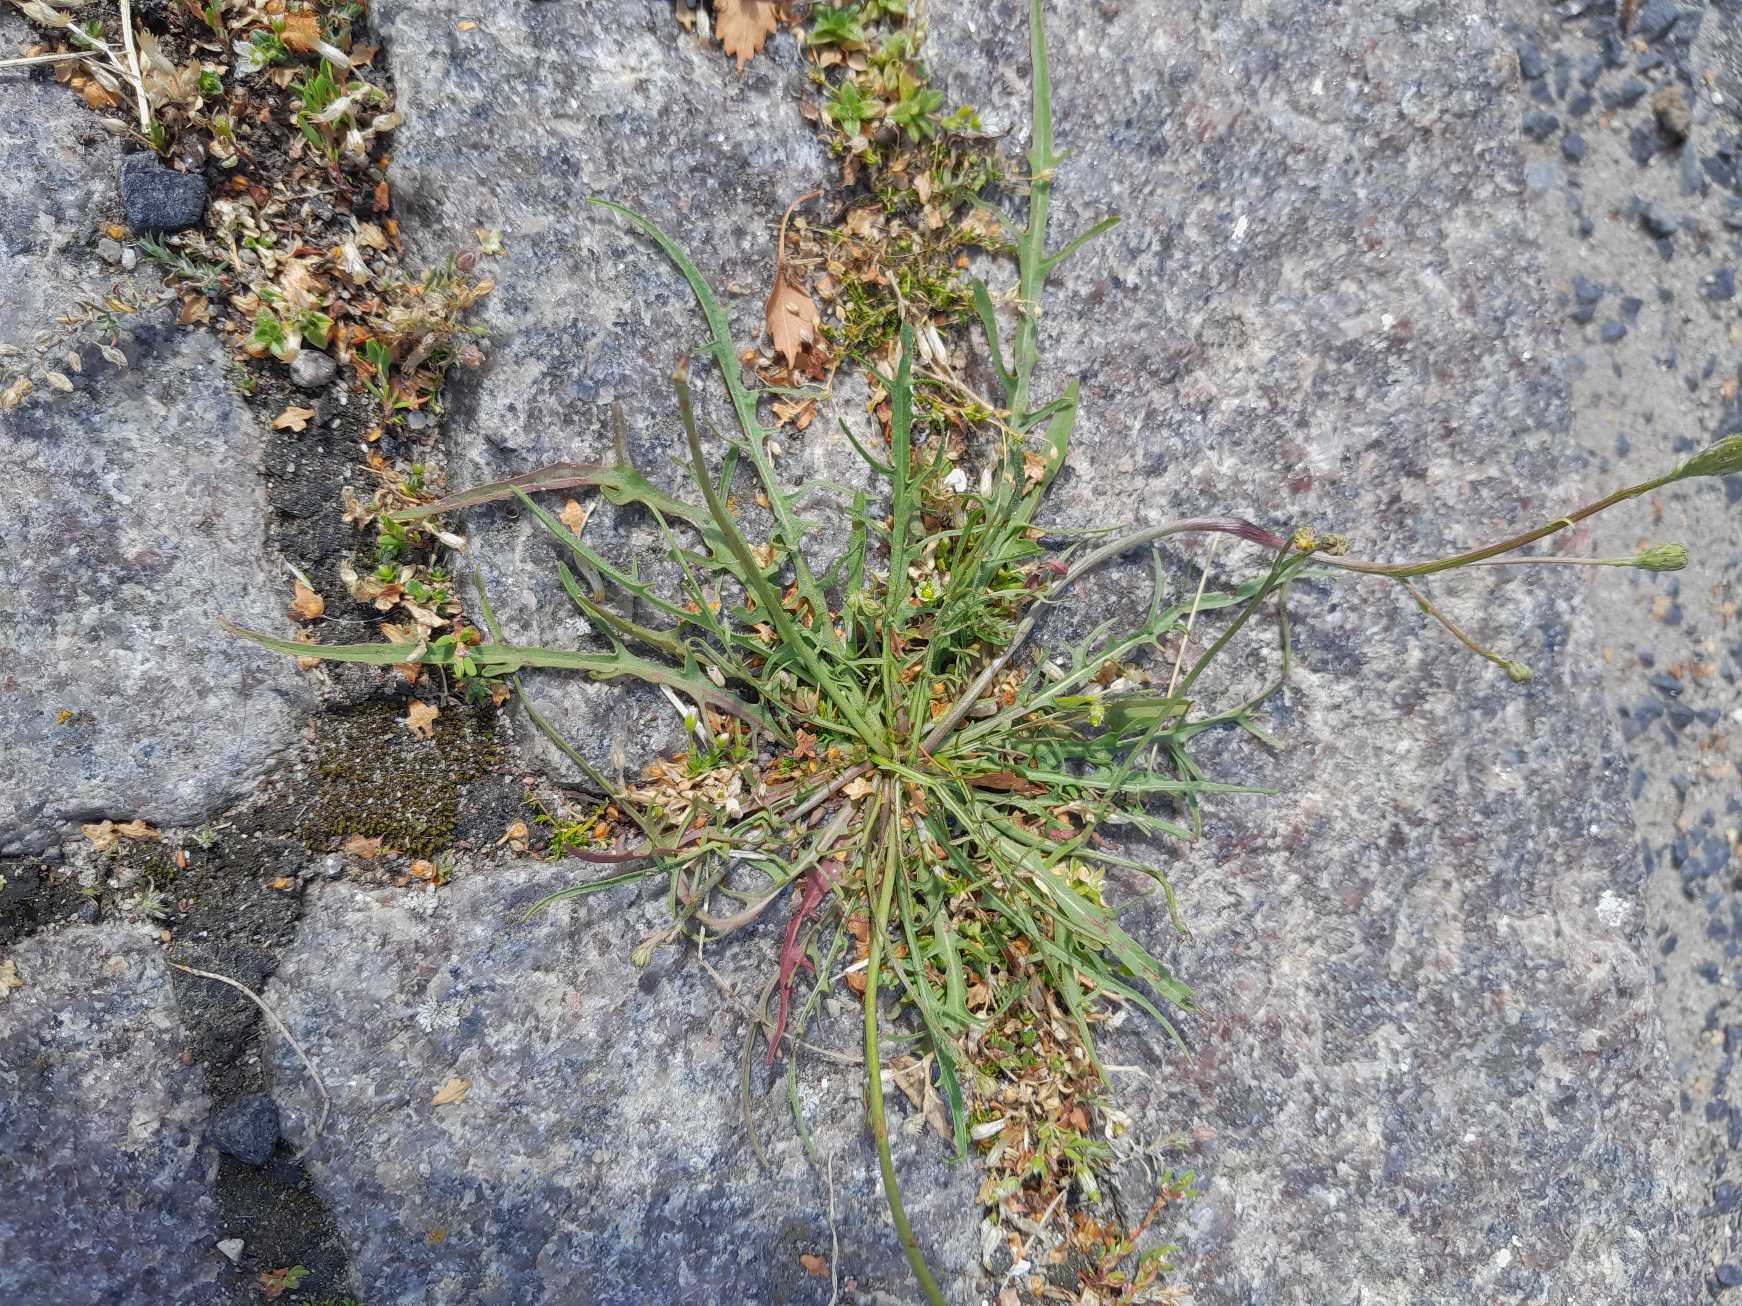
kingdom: Plantae
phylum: Tracheophyta
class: Magnoliopsida
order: Asterales
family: Asteraceae
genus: Scorzoneroides
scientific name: Scorzoneroides autumnalis
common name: Høst-borst
